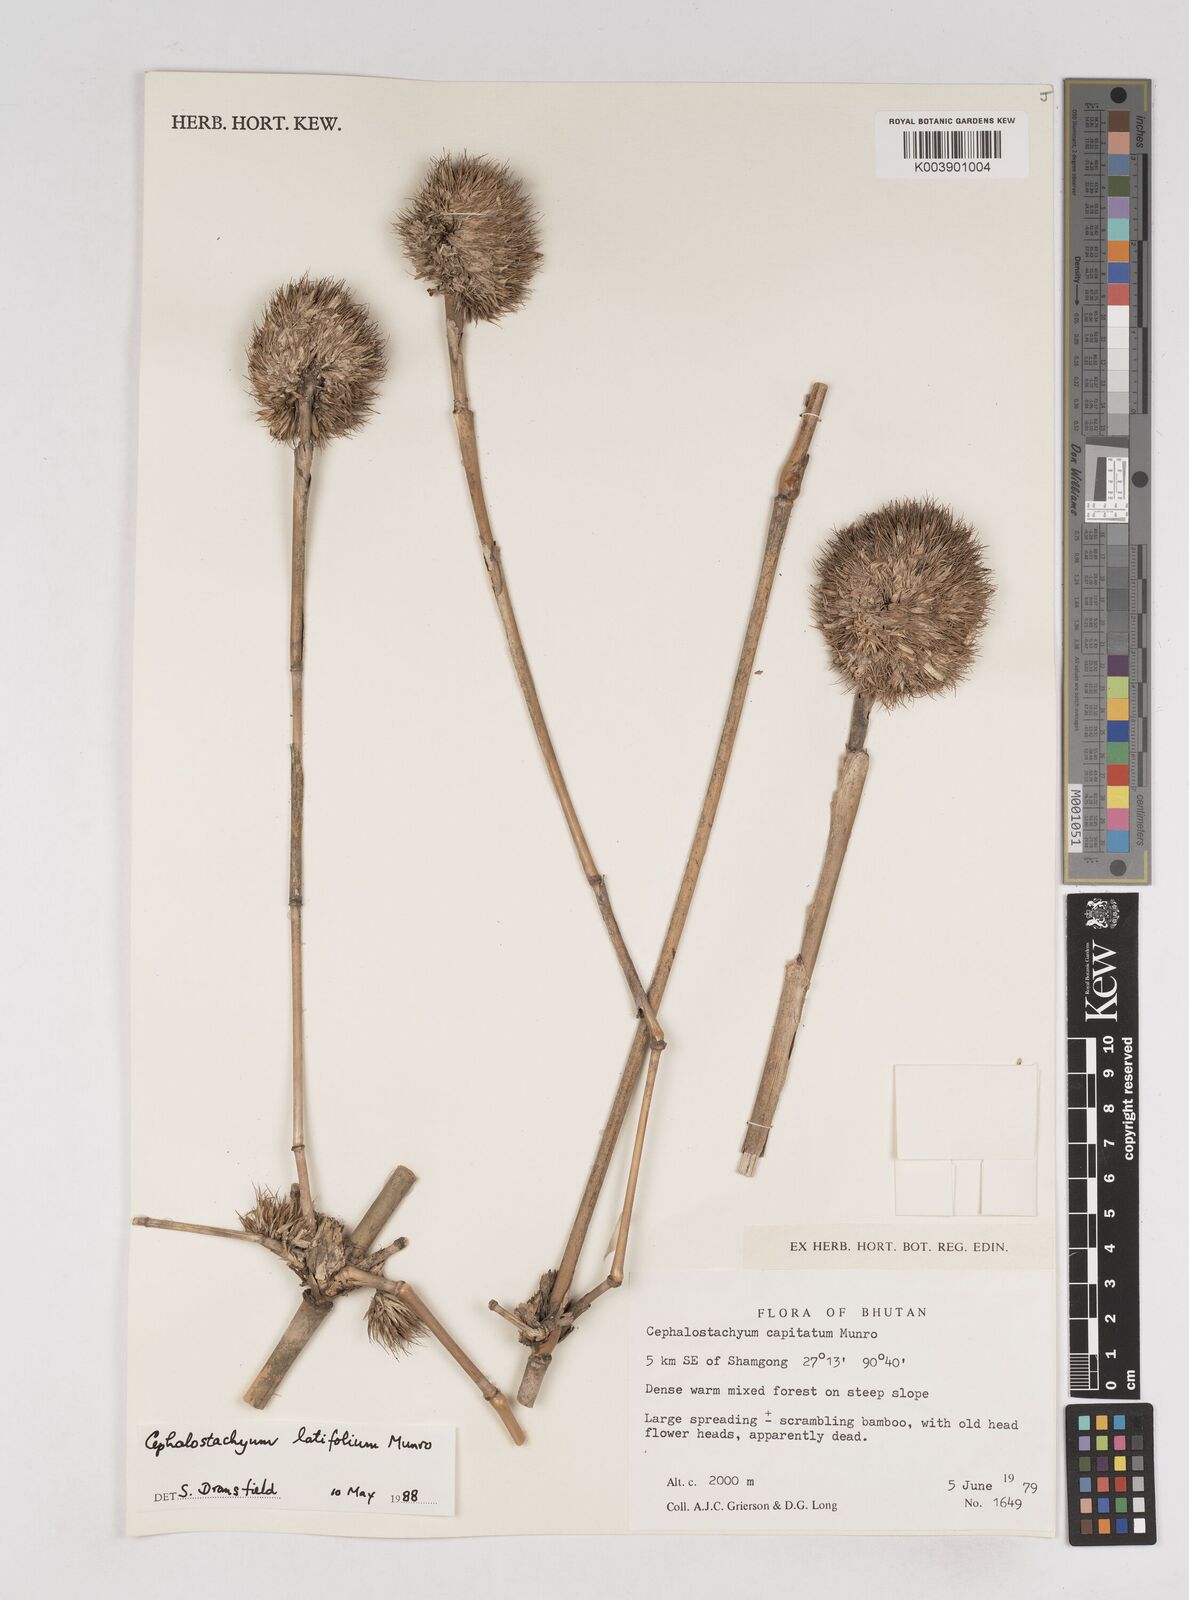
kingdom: Plantae
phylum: Tracheophyta
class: Liliopsida
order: Poales
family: Poaceae
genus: Cephalostachyum
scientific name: Cephalostachyum latifolium
